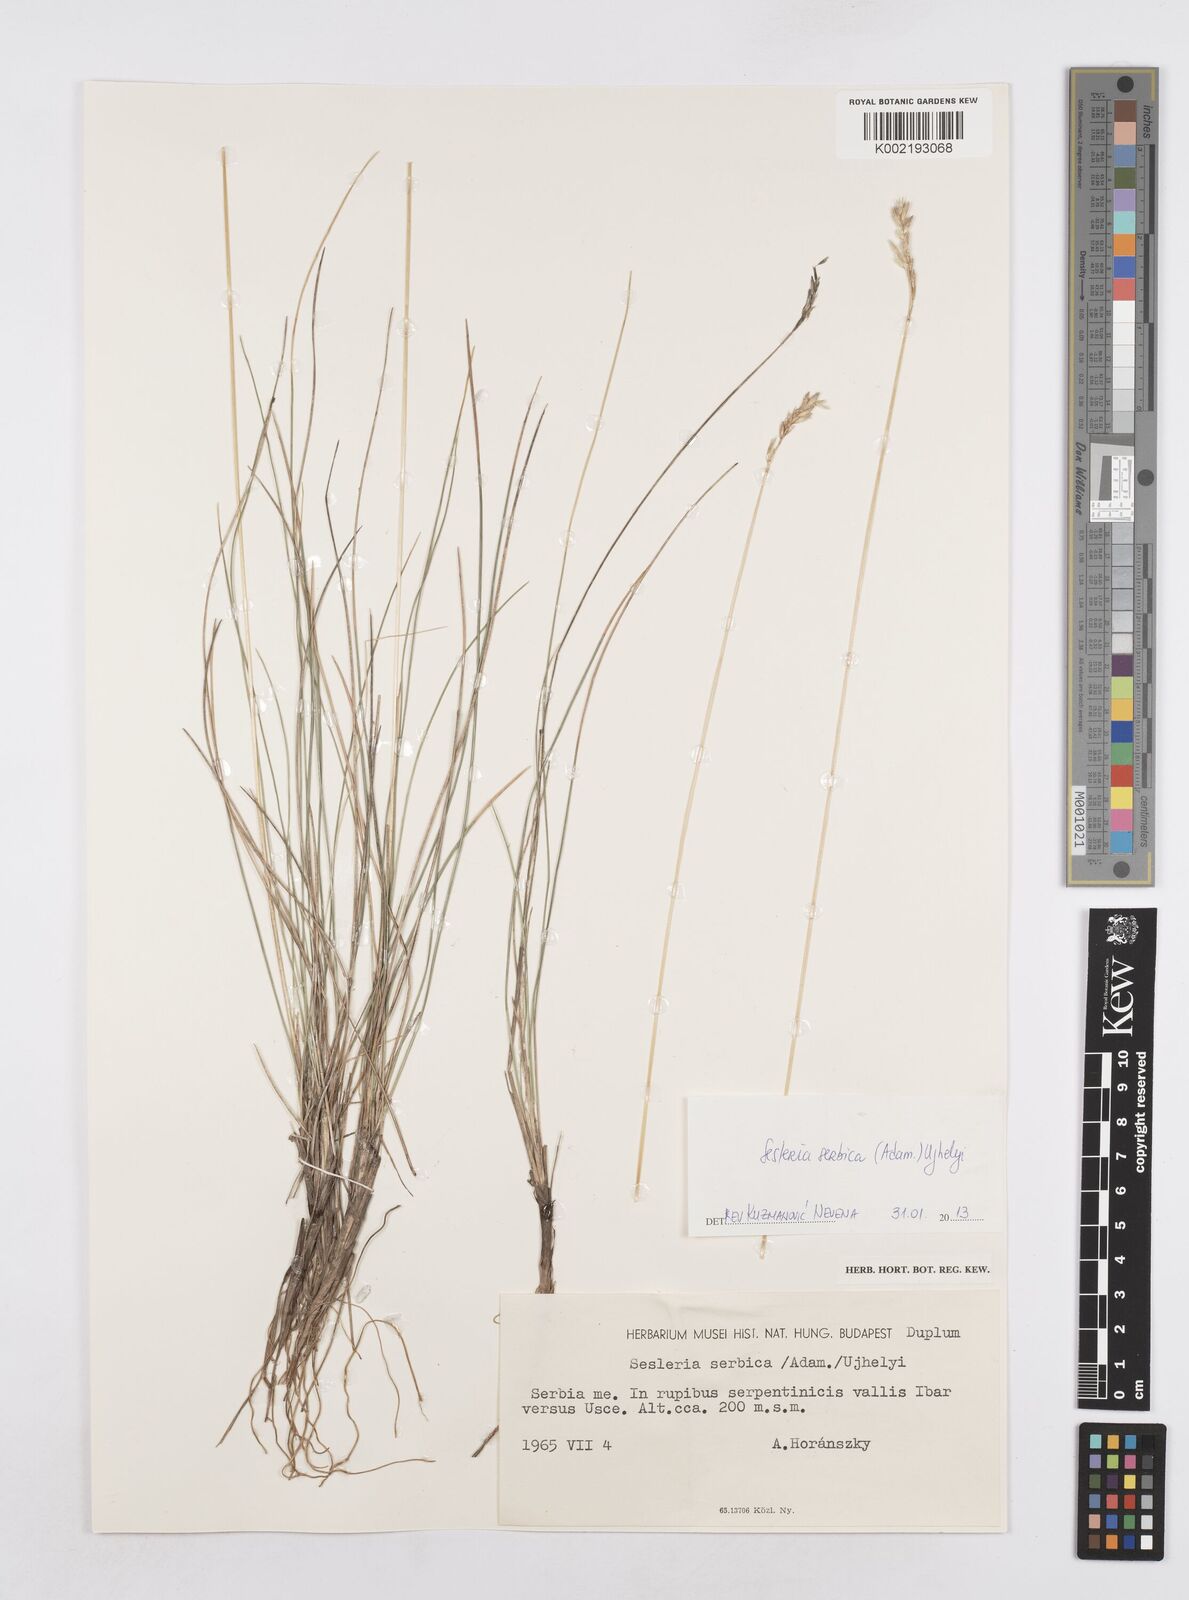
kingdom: Plantae
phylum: Tracheophyta
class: Liliopsida
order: Poales
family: Poaceae
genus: Sesleria
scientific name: Sesleria rigida
